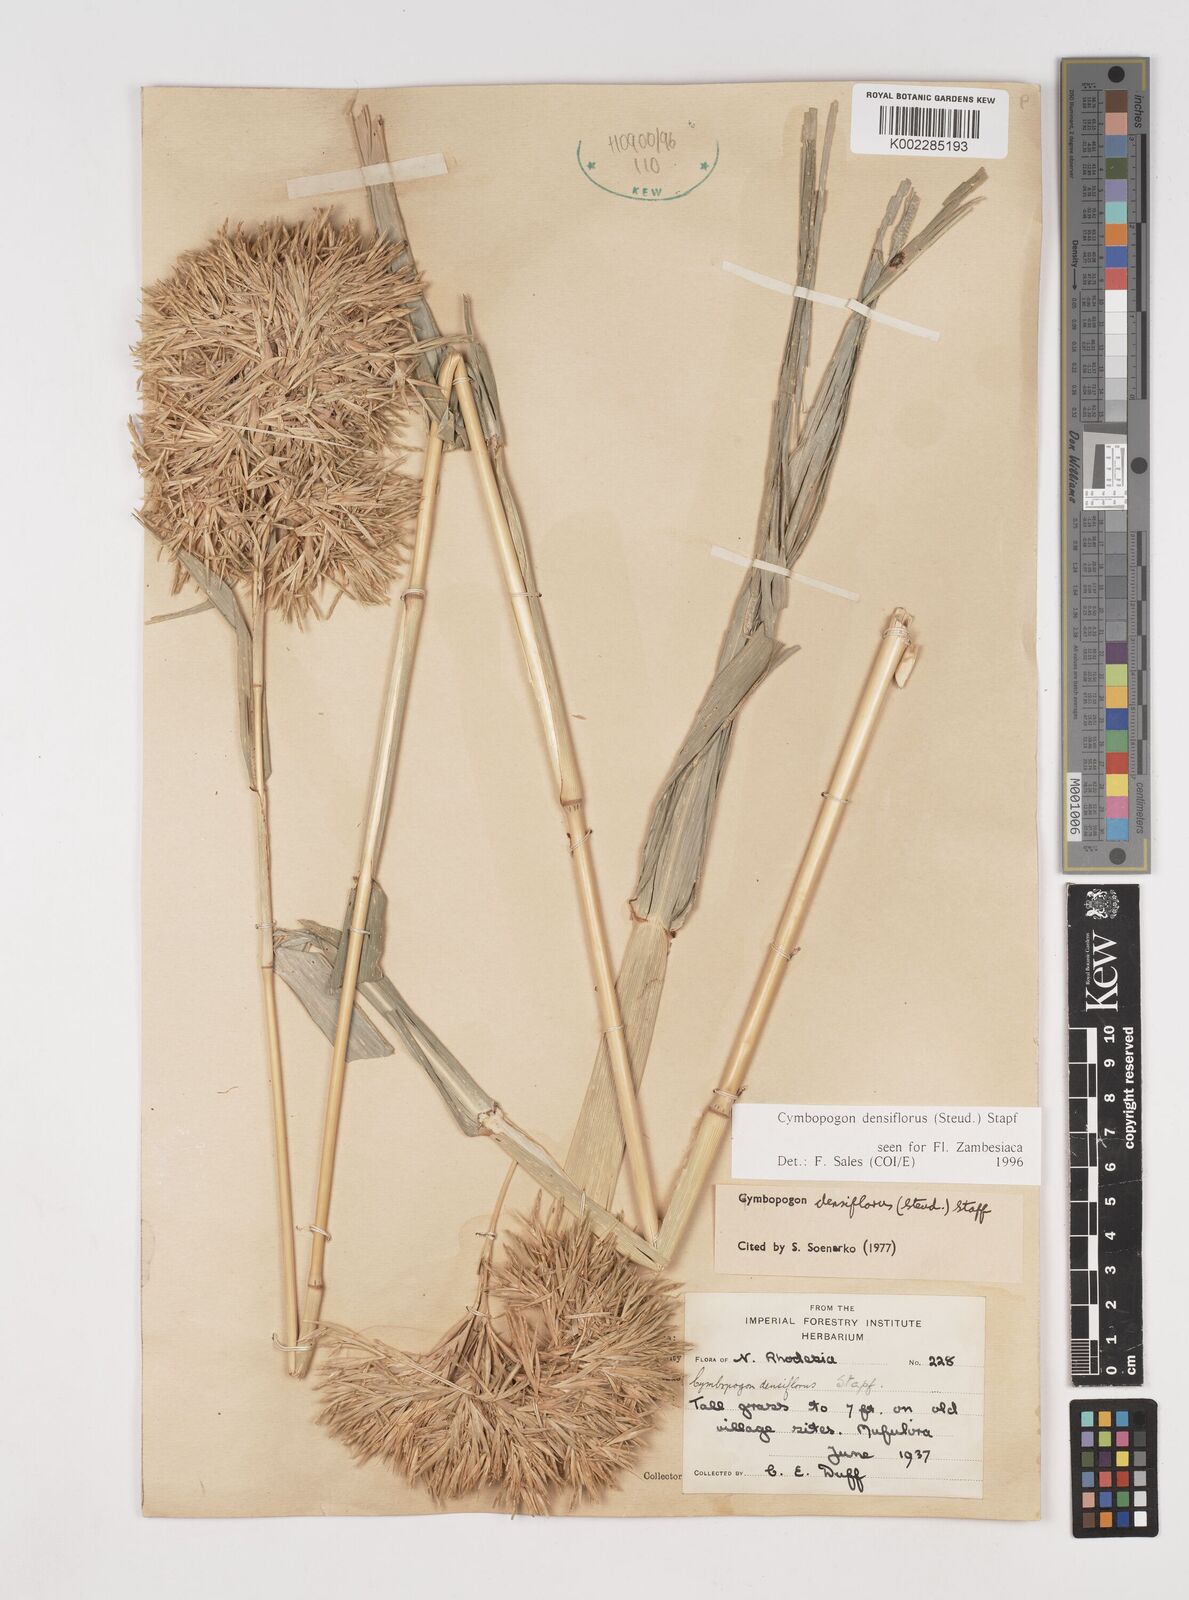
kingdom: Plantae
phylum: Tracheophyta
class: Liliopsida
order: Poales
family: Poaceae
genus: Cymbopogon
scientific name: Cymbopogon densiflorus
